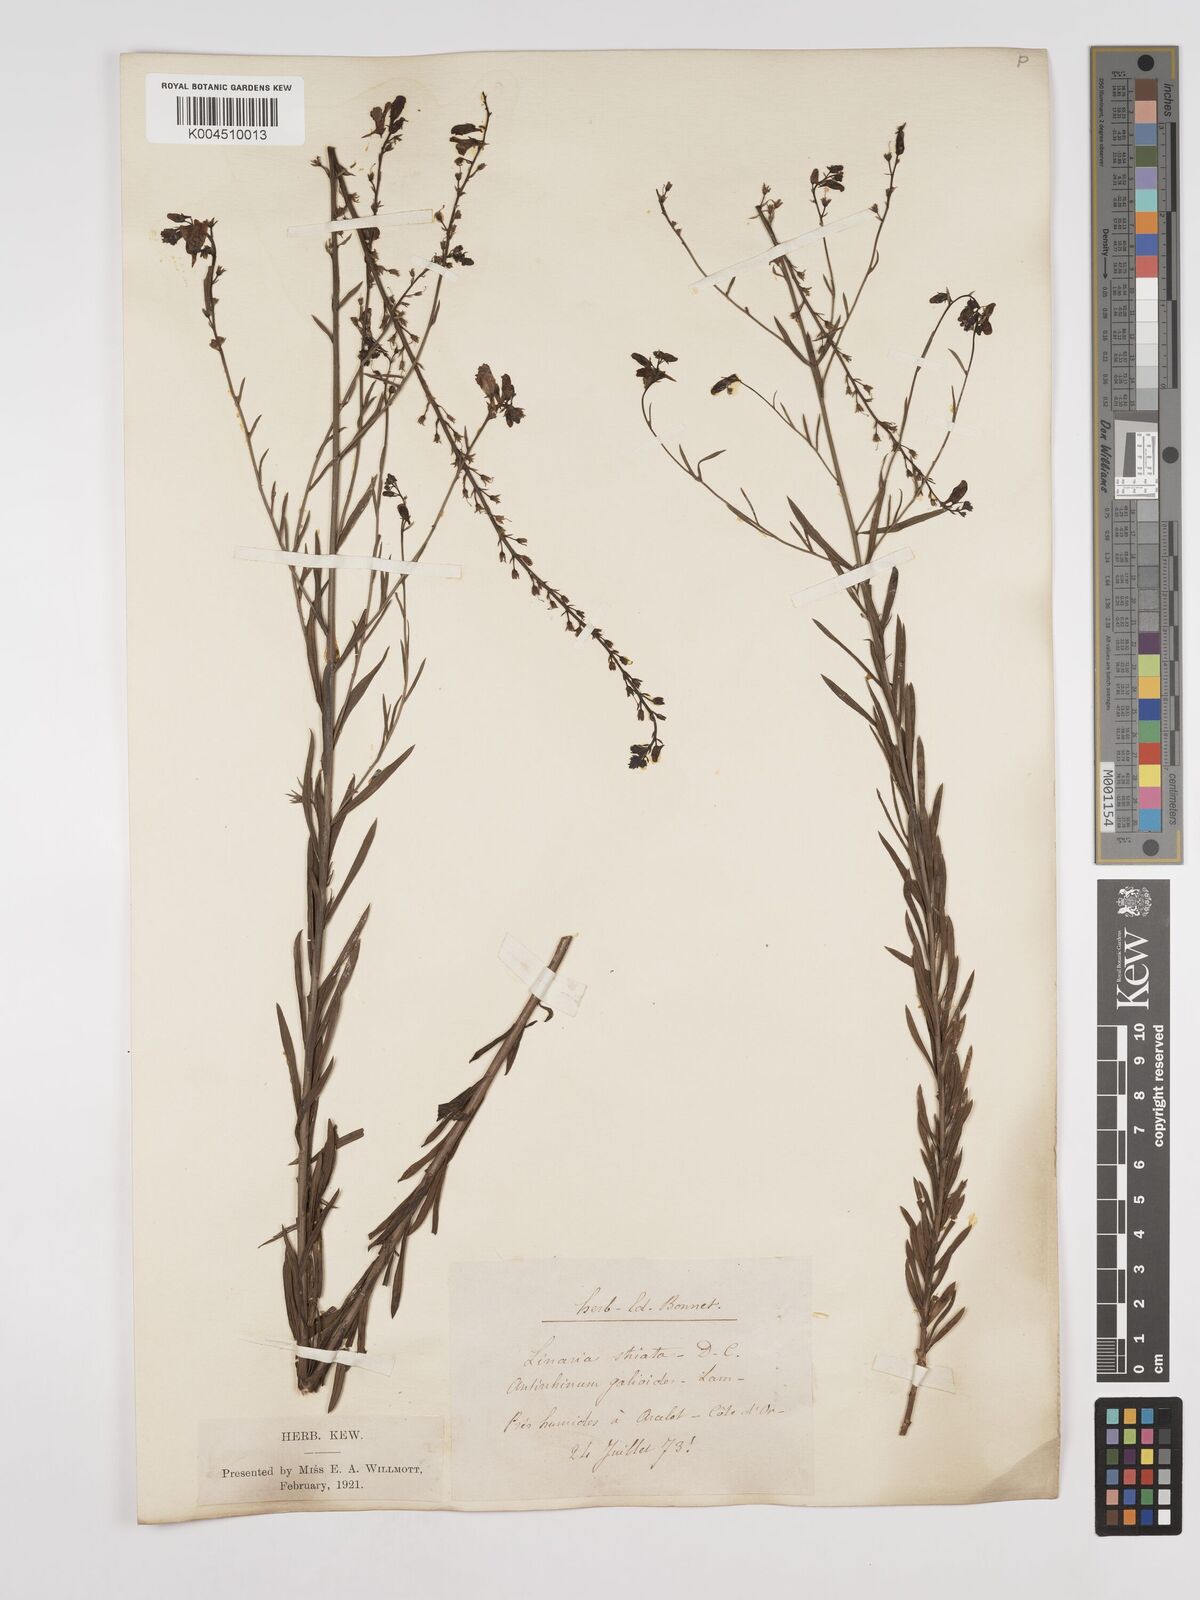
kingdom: Plantae
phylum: Tracheophyta
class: Magnoliopsida
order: Lamiales
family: Plantaginaceae
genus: Linaria
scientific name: Linaria repens
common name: Pale toadflax
